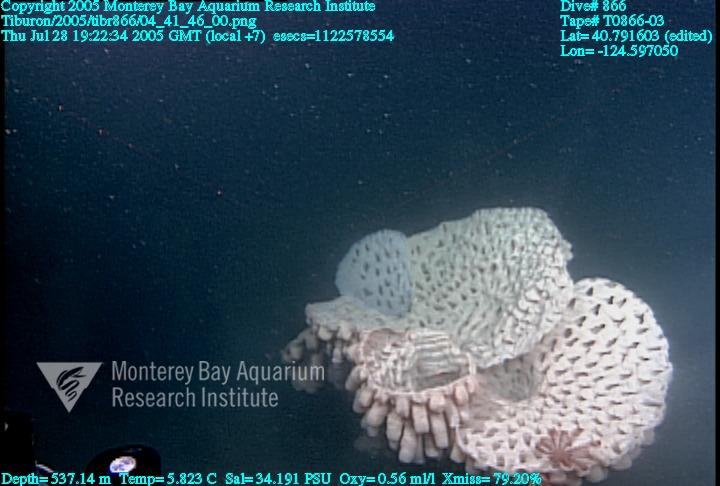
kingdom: Animalia
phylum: Porifera
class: Hexactinellida
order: Sceptrulophora
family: Aphrocallistidae
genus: Heterochone
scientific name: Heterochone calyx
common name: Fingered goblet glass sponge
